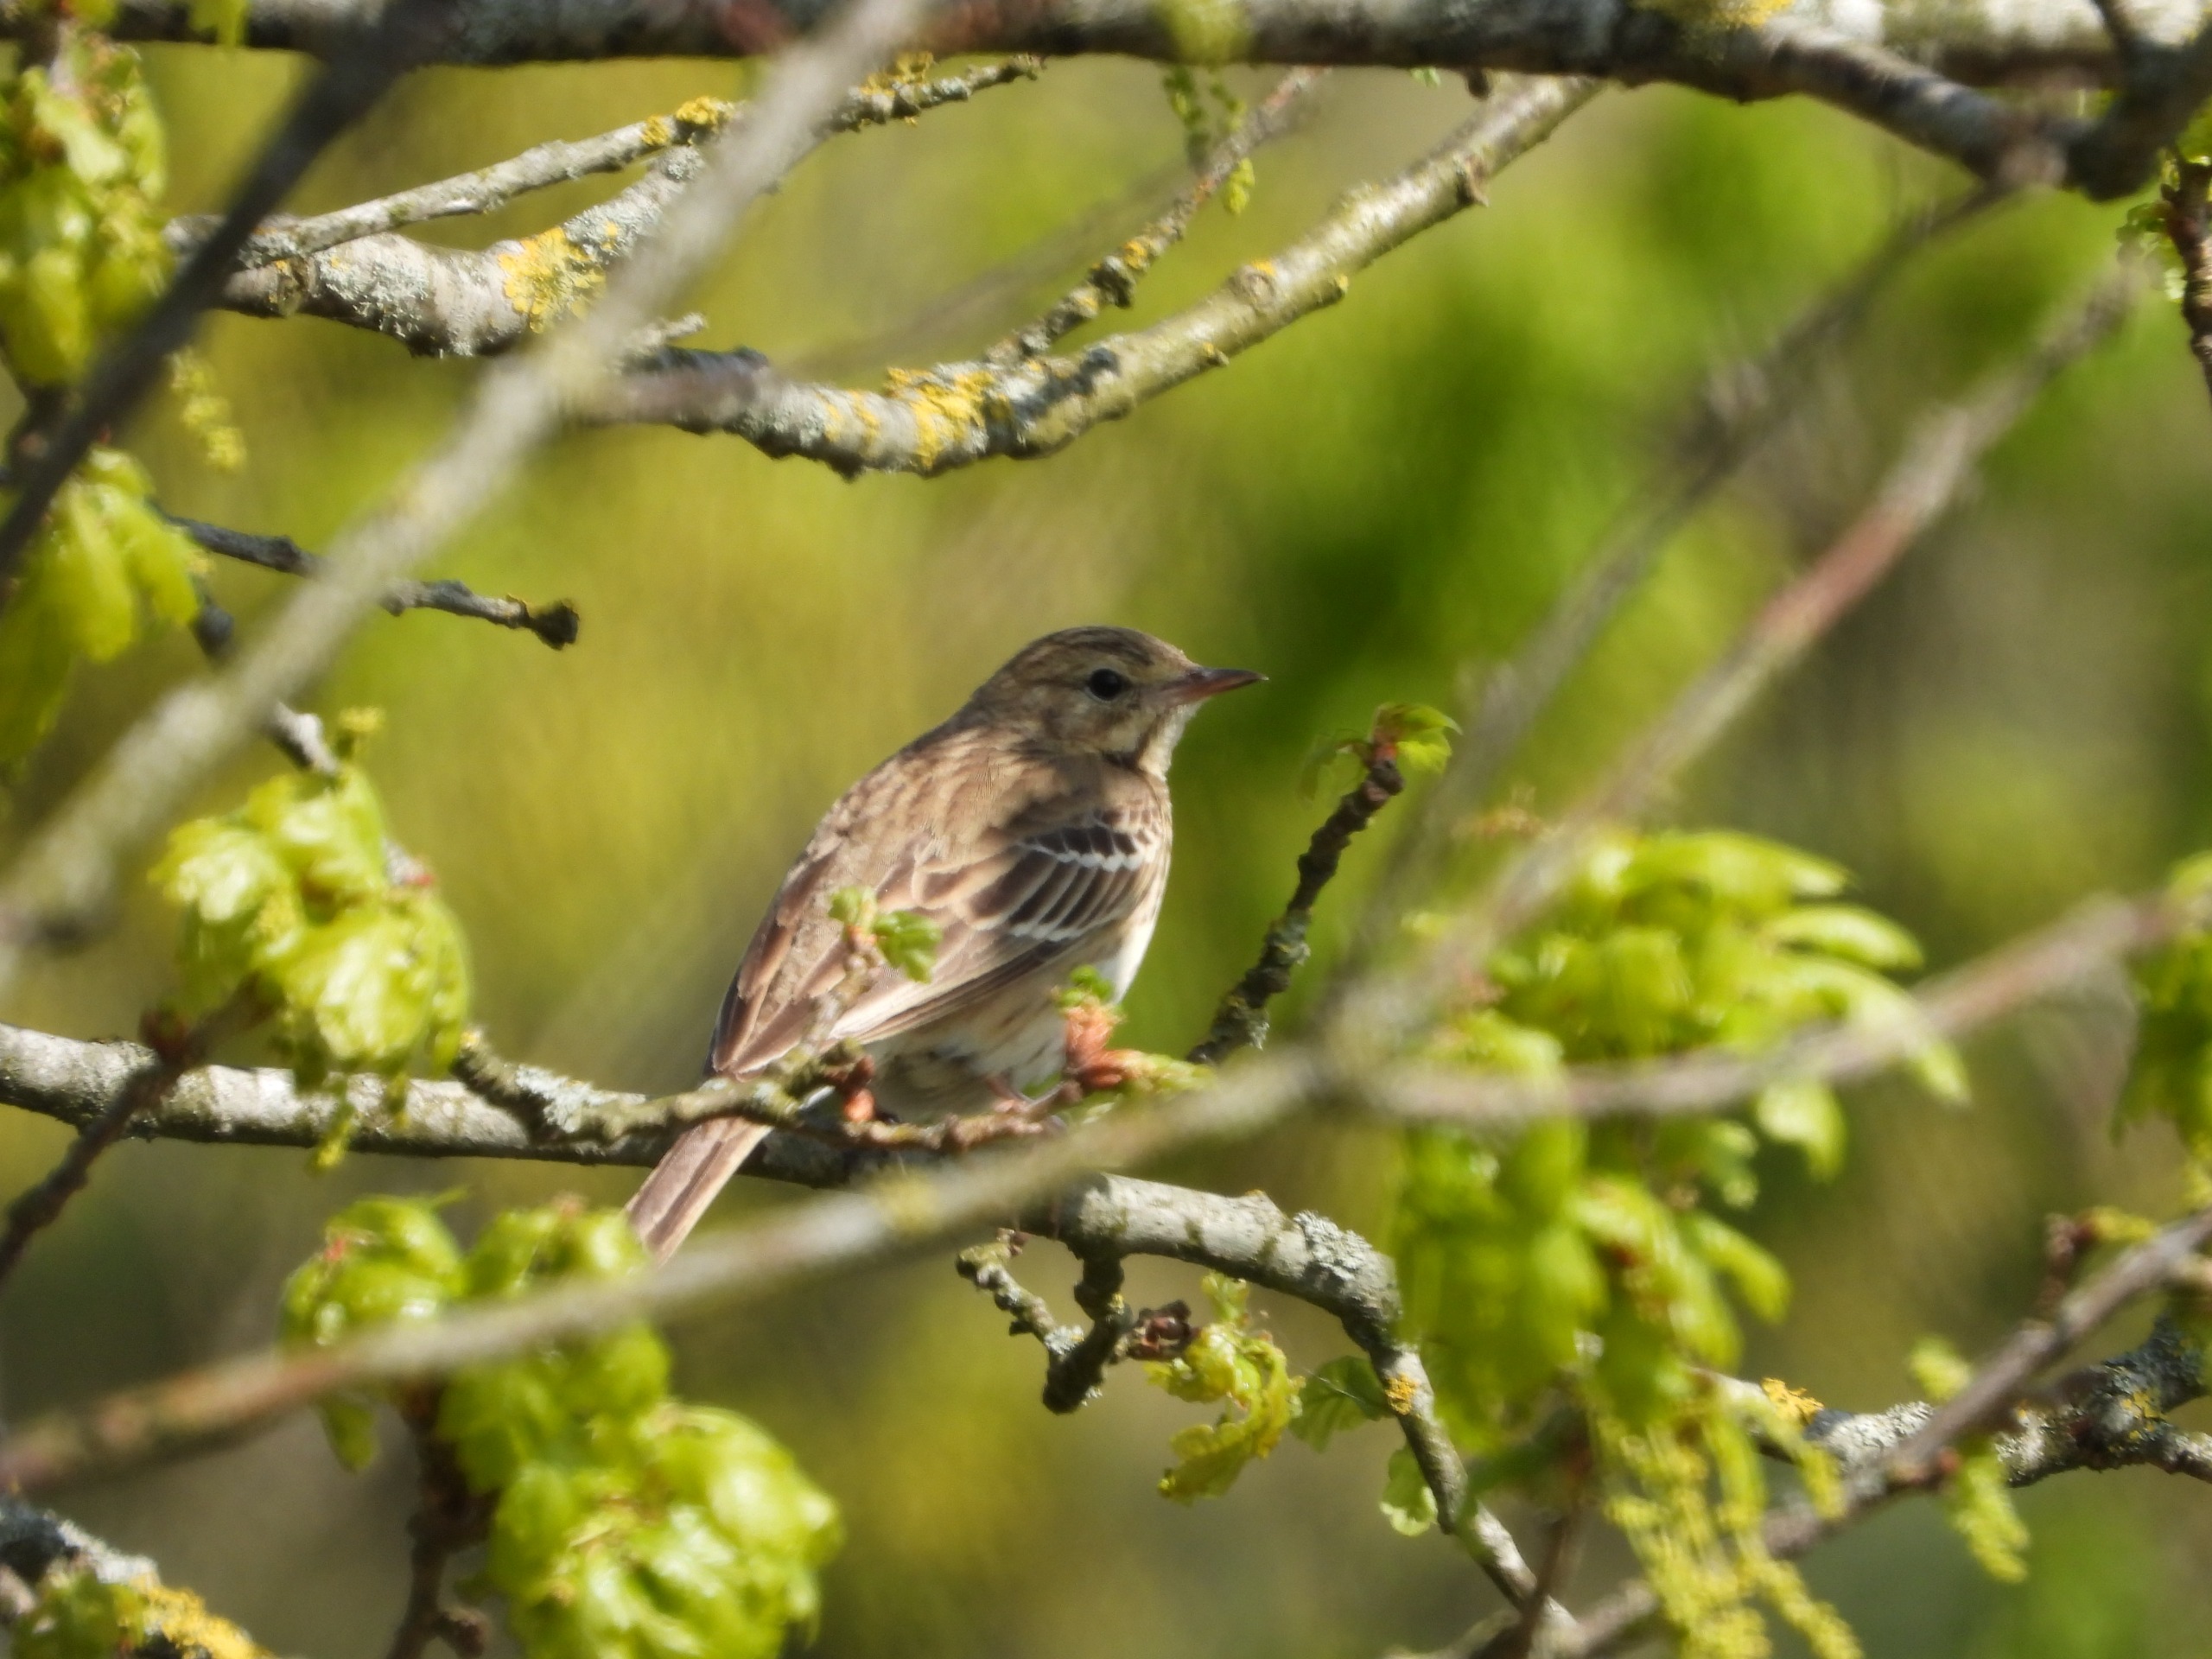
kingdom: Animalia
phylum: Chordata
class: Aves
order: Passeriformes
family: Motacillidae
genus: Anthus
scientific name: Anthus trivialis
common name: Skovpiber
